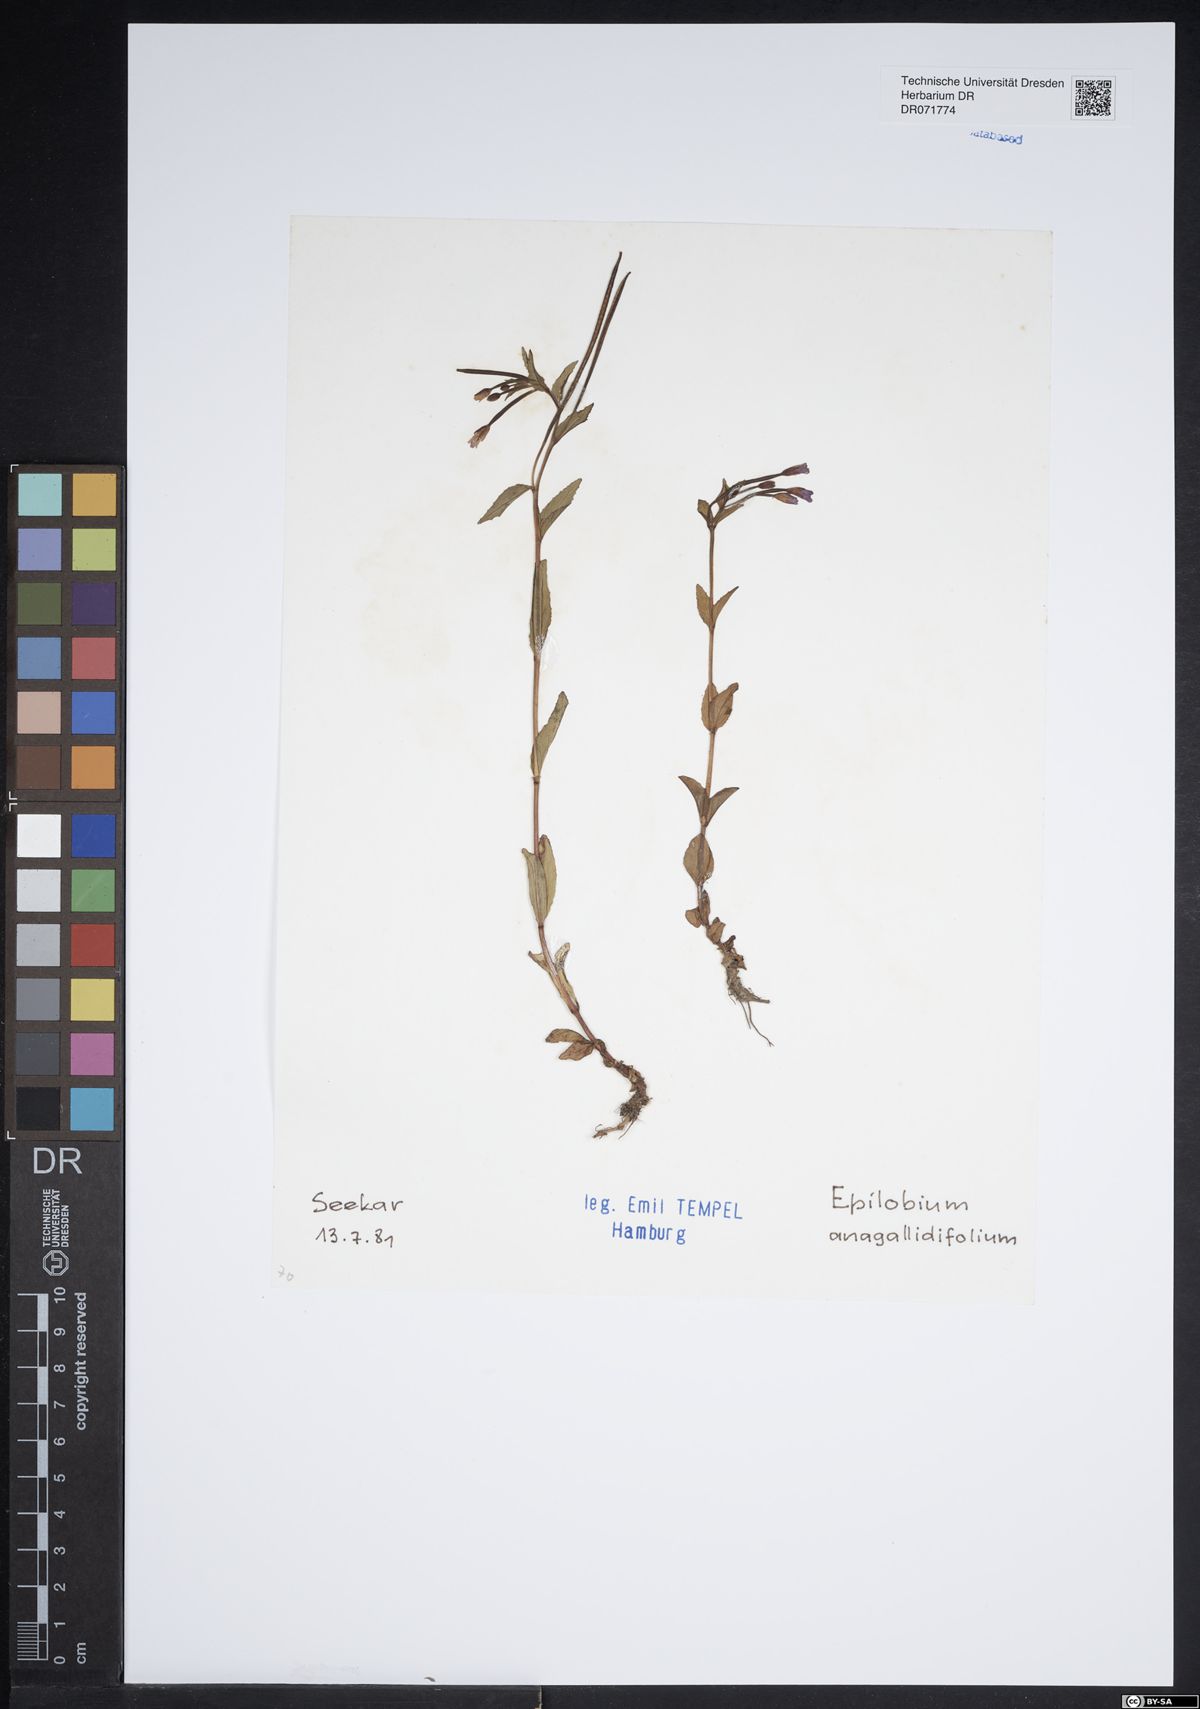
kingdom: Plantae
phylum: Tracheophyta
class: Magnoliopsida
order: Myrtales
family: Onagraceae
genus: Epilobium
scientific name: Epilobium anagallidifolium
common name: Alpine willowherb
